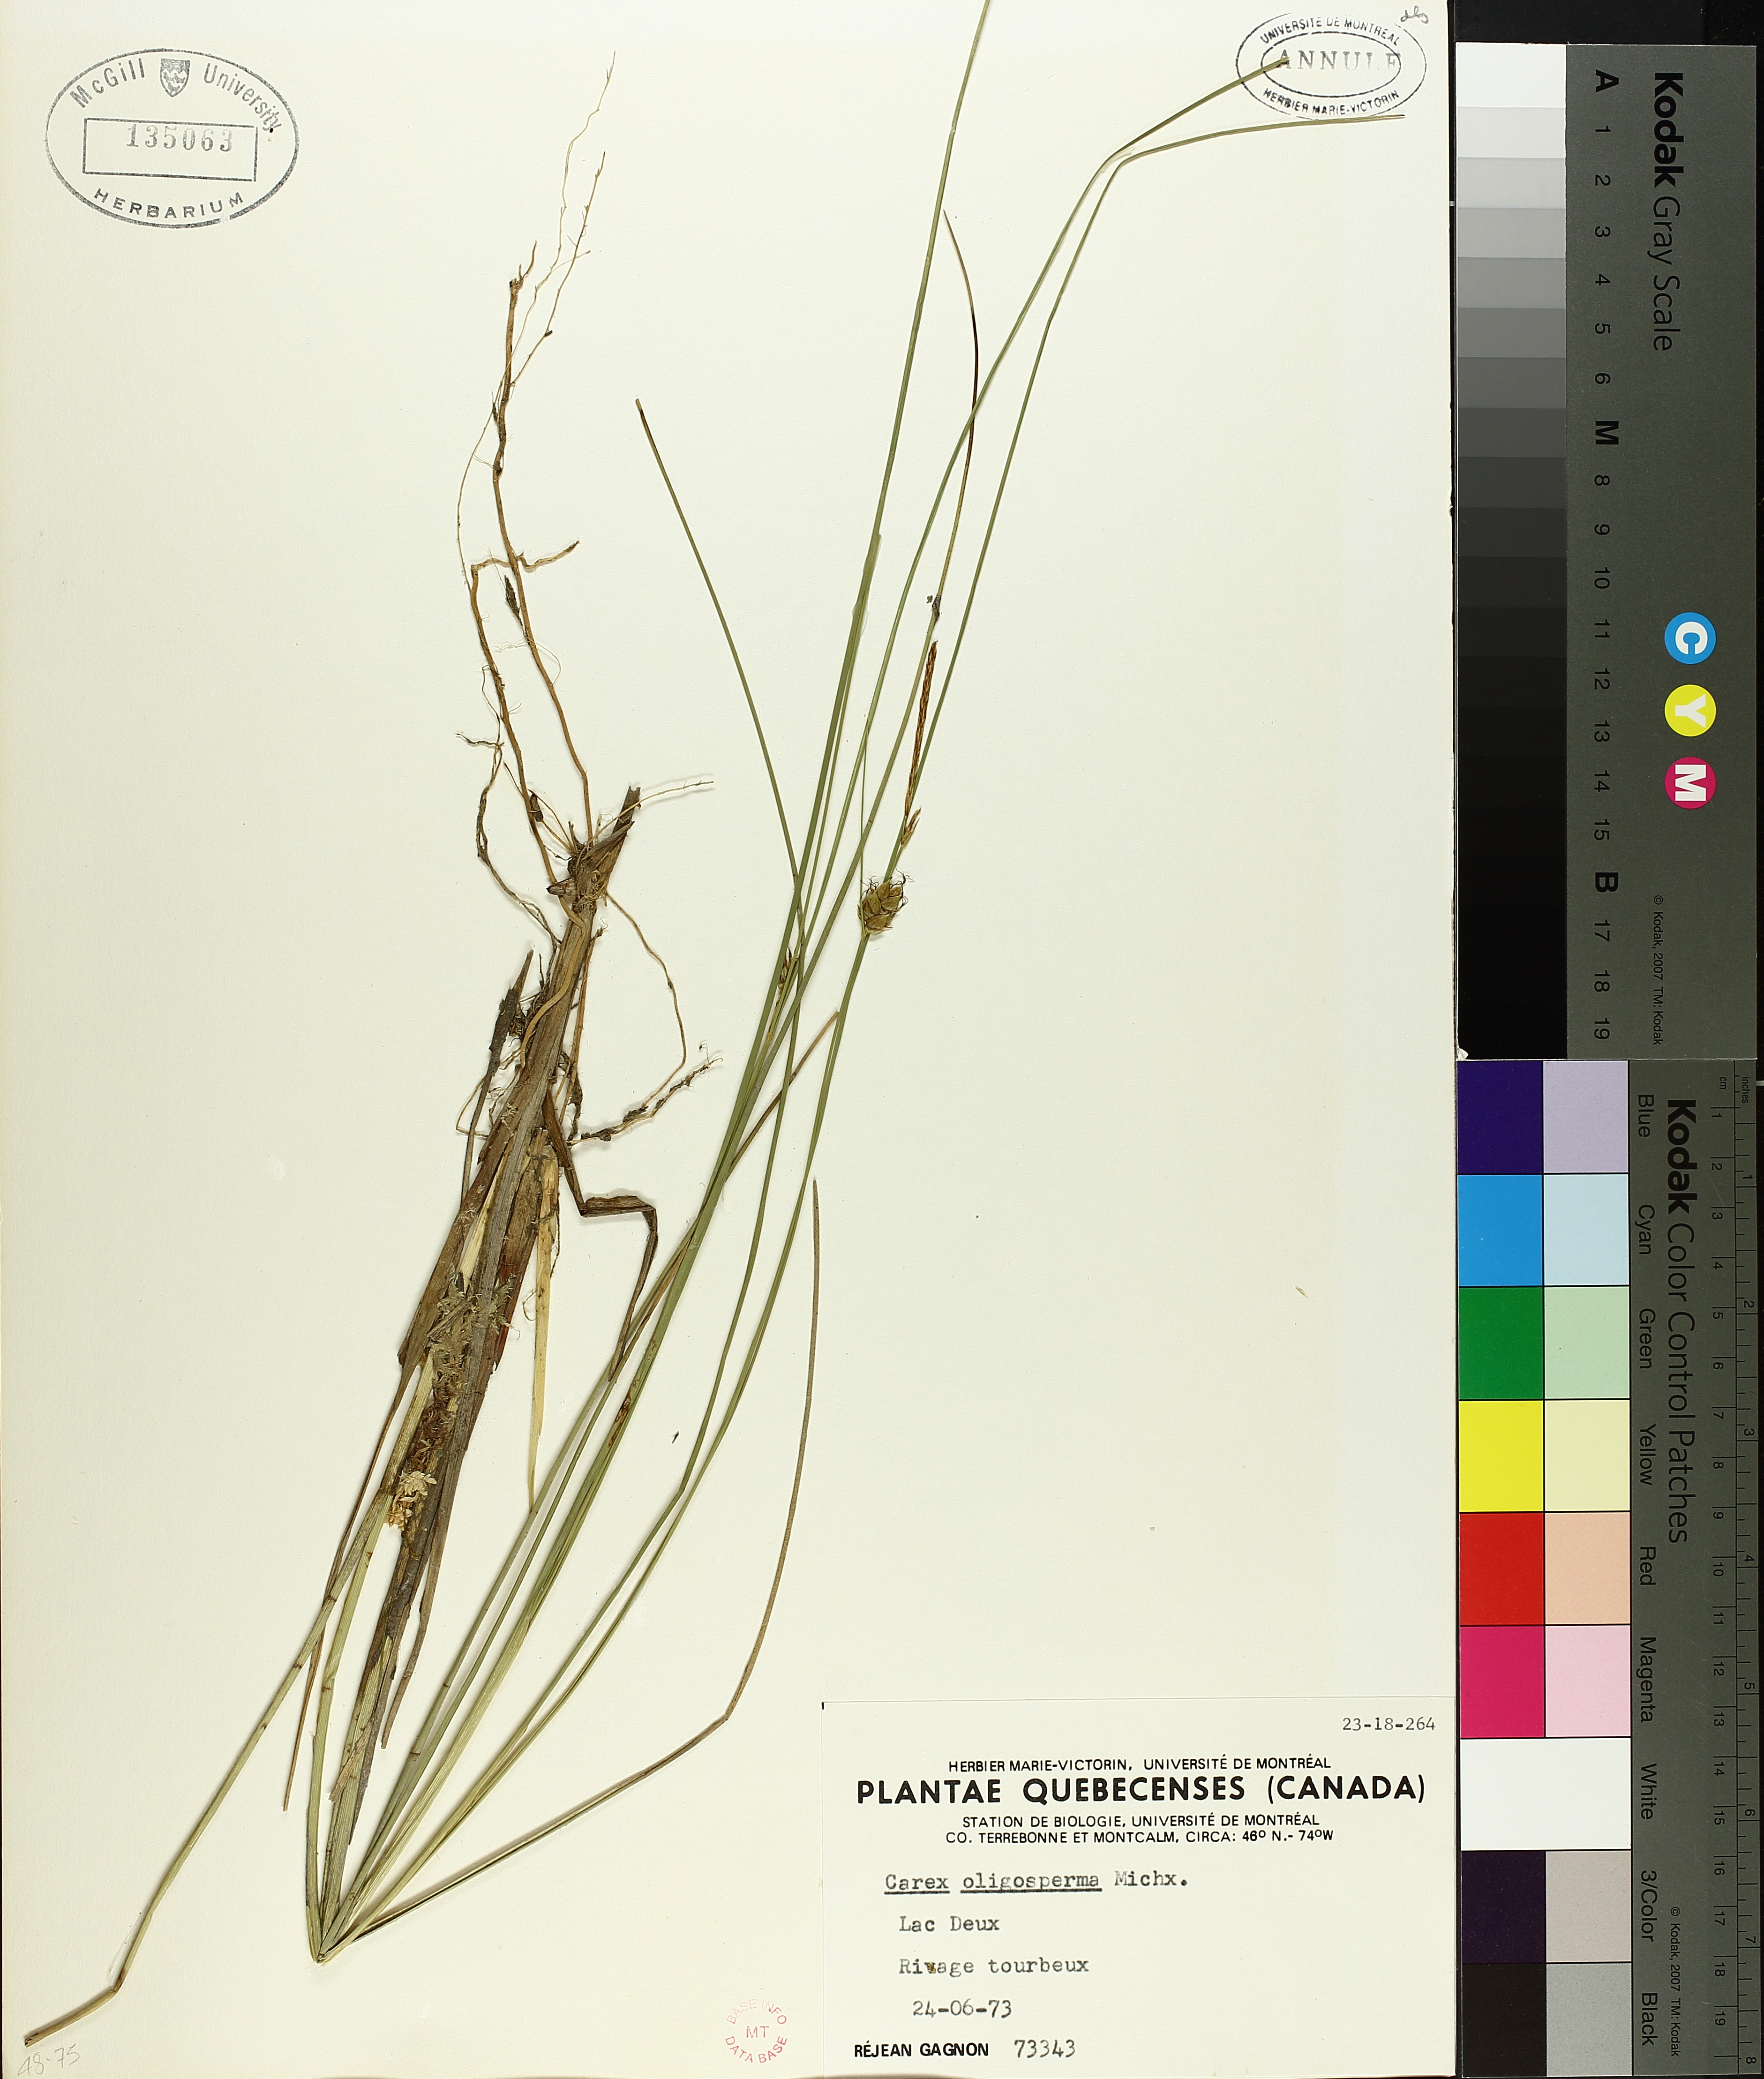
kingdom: Plantae
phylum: Tracheophyta
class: Liliopsida
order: Poales
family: Cyperaceae
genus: Carex
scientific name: Carex oligosperma
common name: Few-seed sedge
